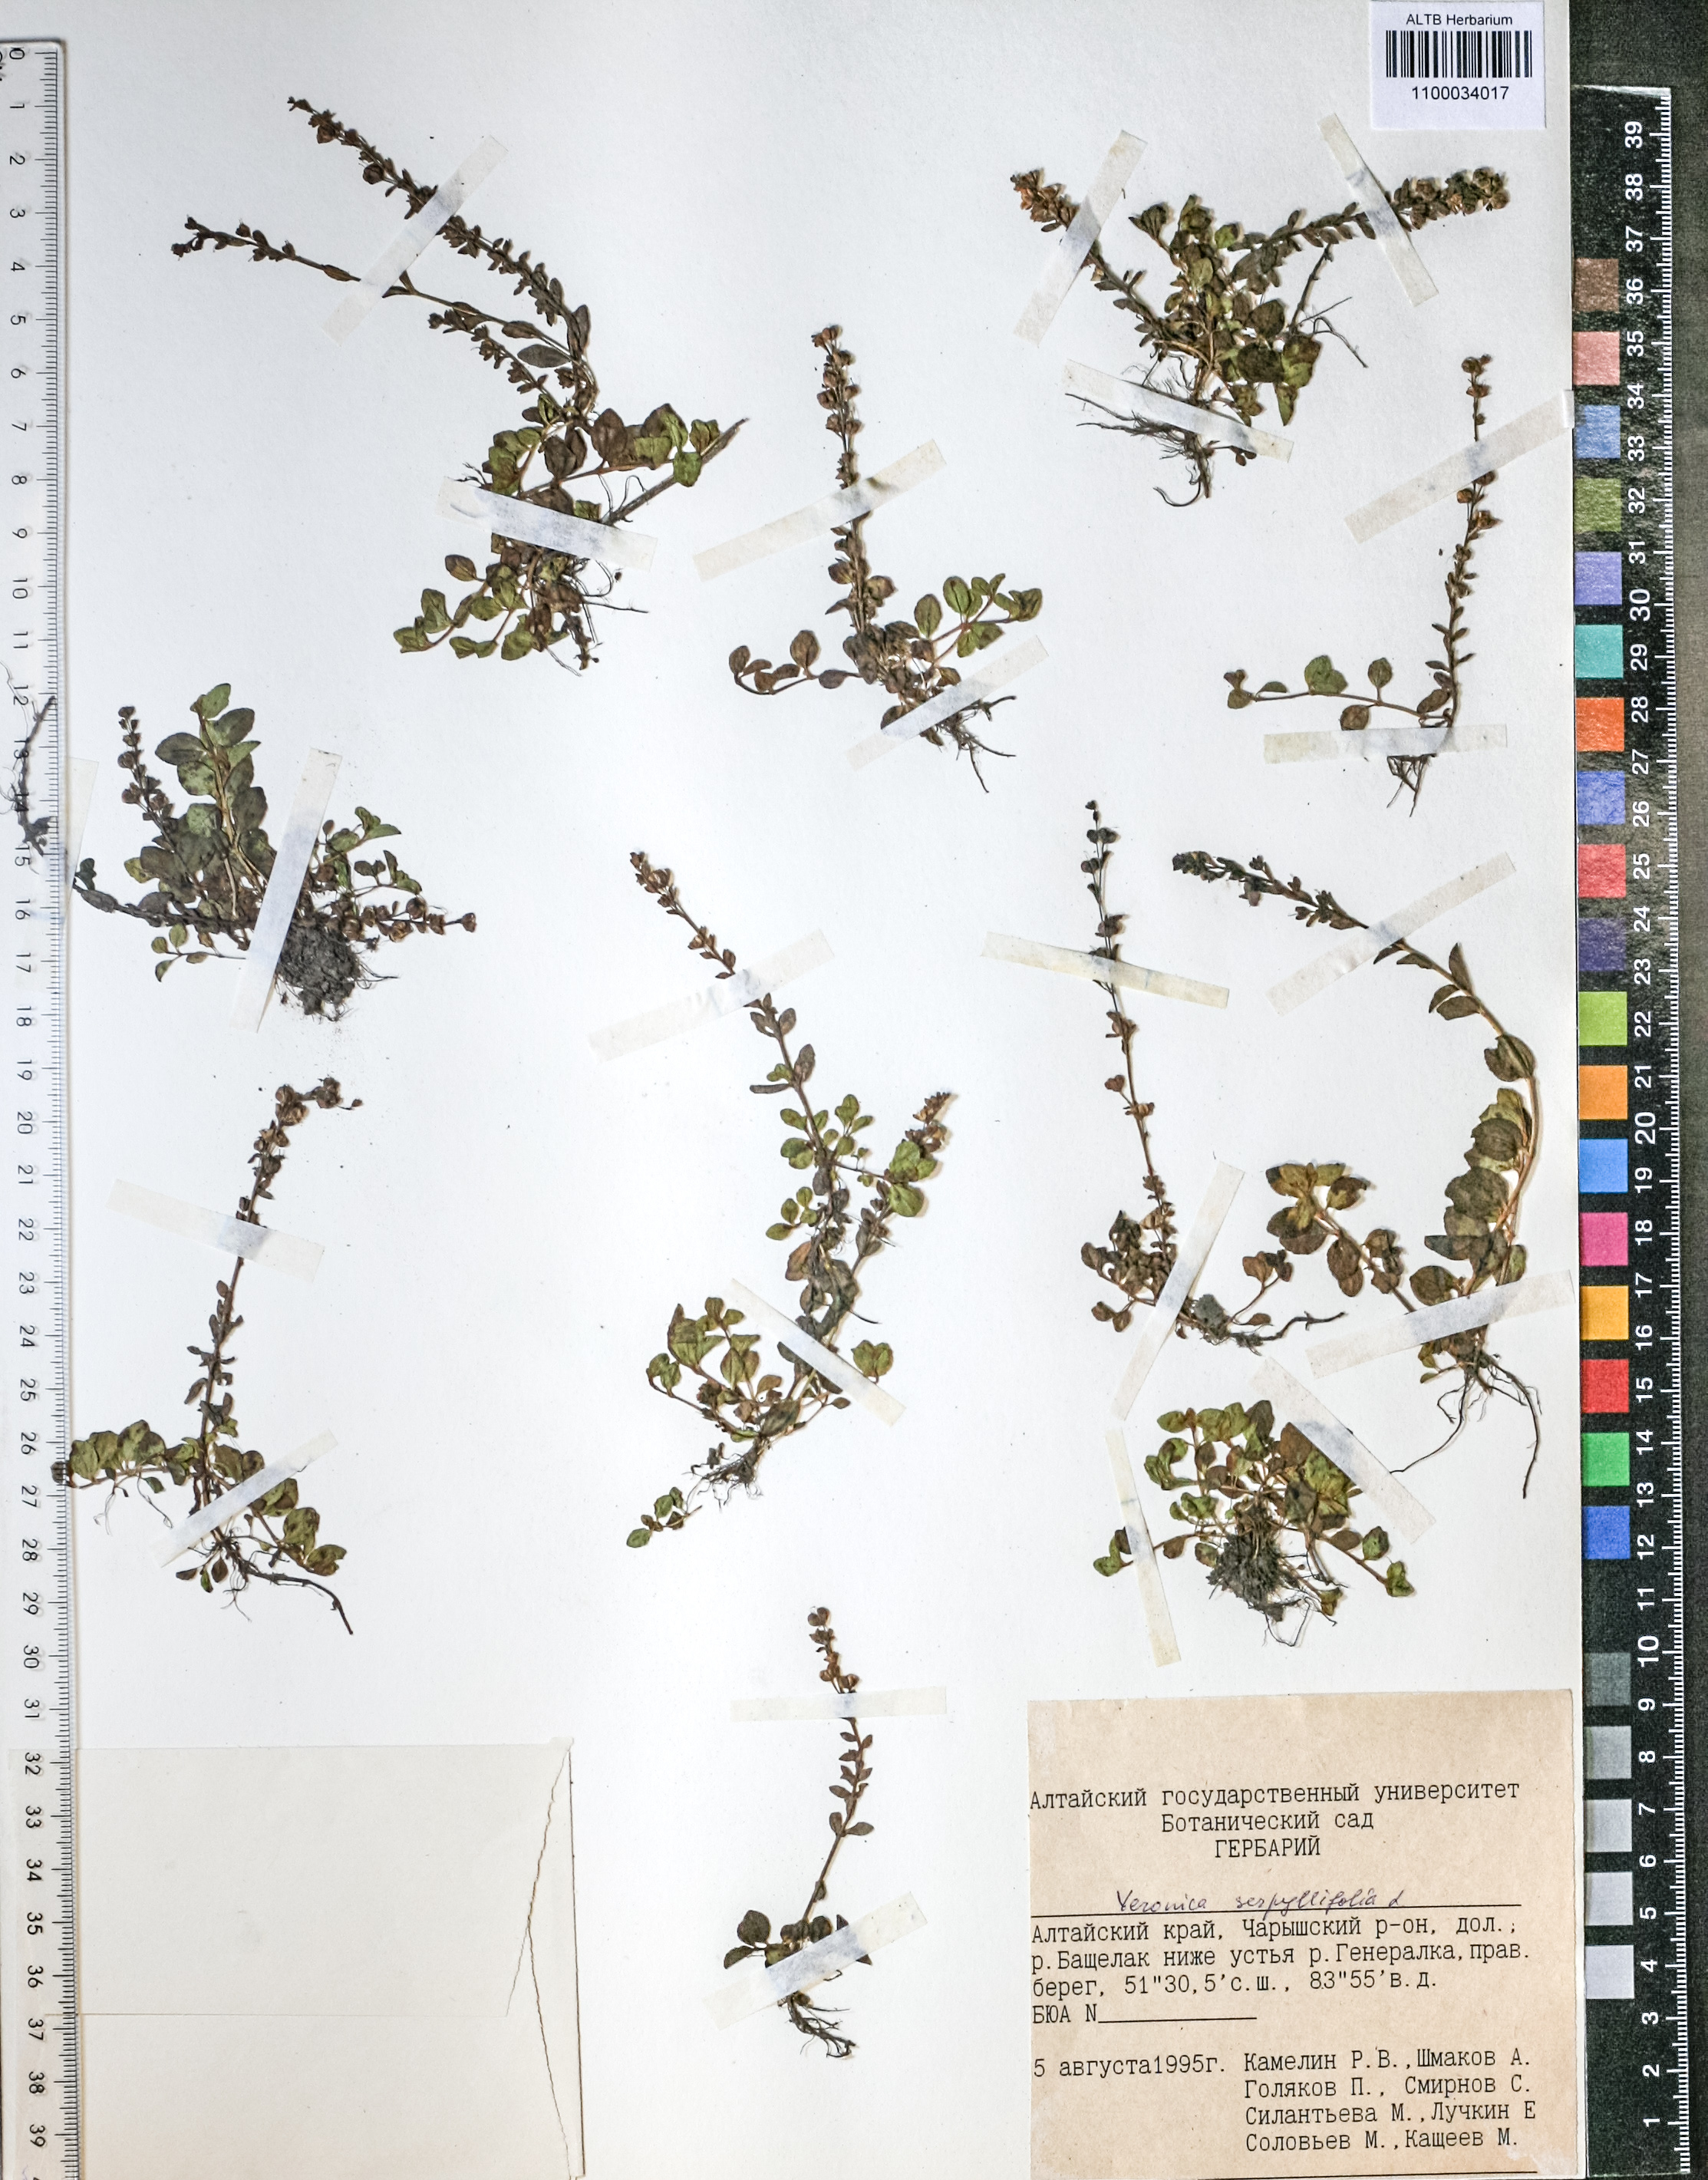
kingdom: Plantae
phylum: Tracheophyta
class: Magnoliopsida
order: Lamiales
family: Plantaginaceae
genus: Veronica
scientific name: Veronica serpyllifolia
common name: Thyme-leaved speedwell
